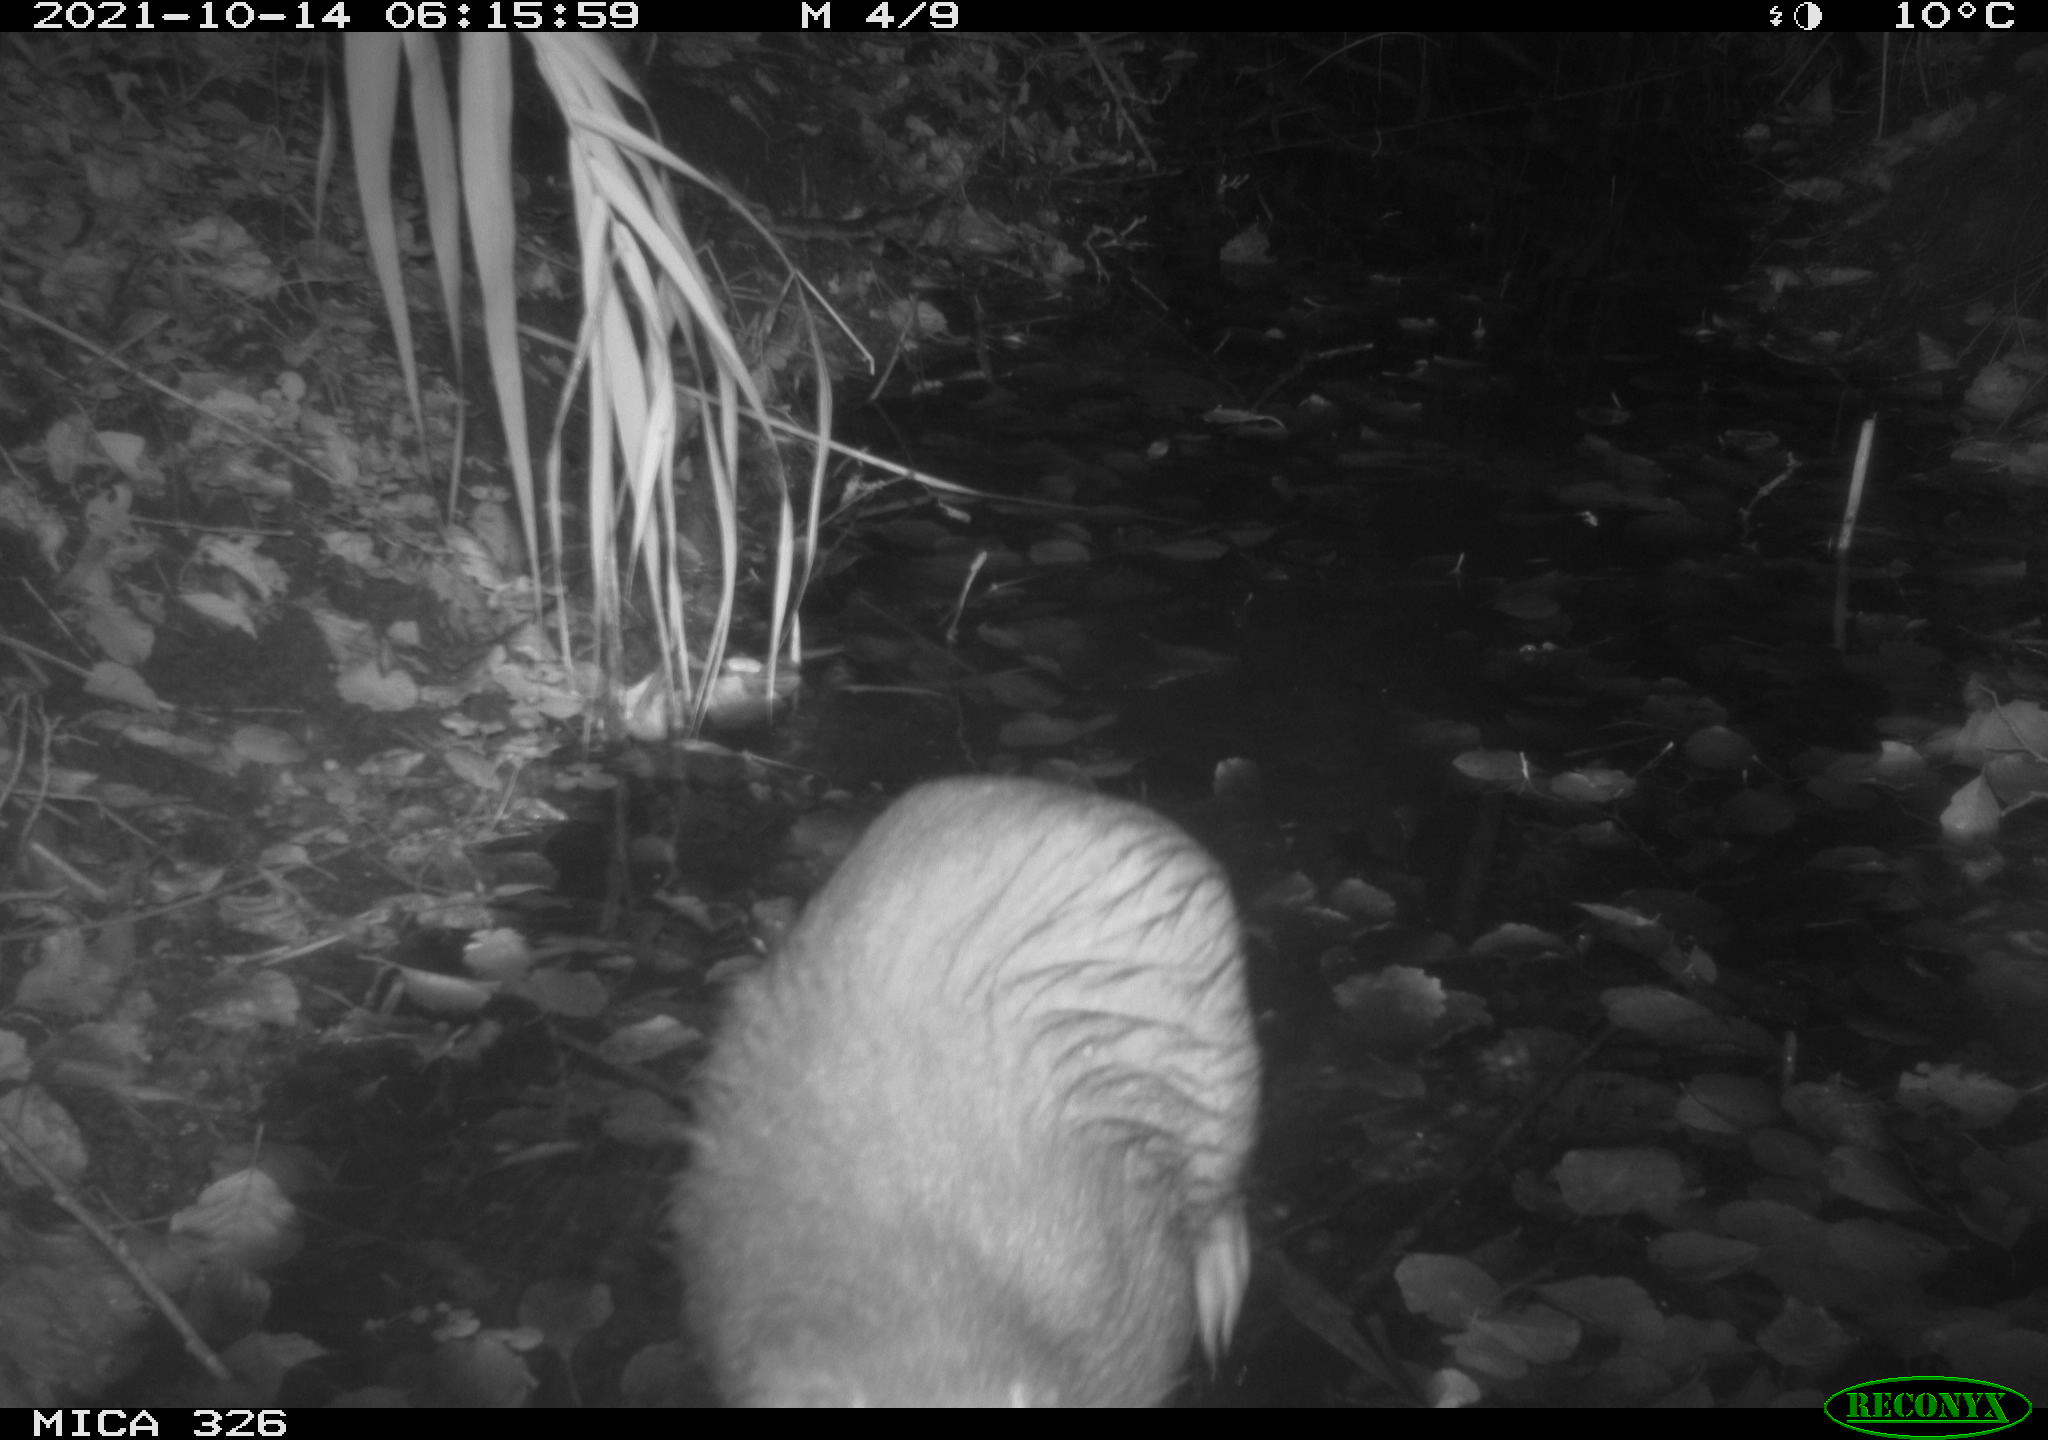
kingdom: Animalia
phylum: Chordata
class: Mammalia
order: Rodentia
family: Myocastoridae
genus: Myocastor
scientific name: Myocastor coypus
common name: Coypu
